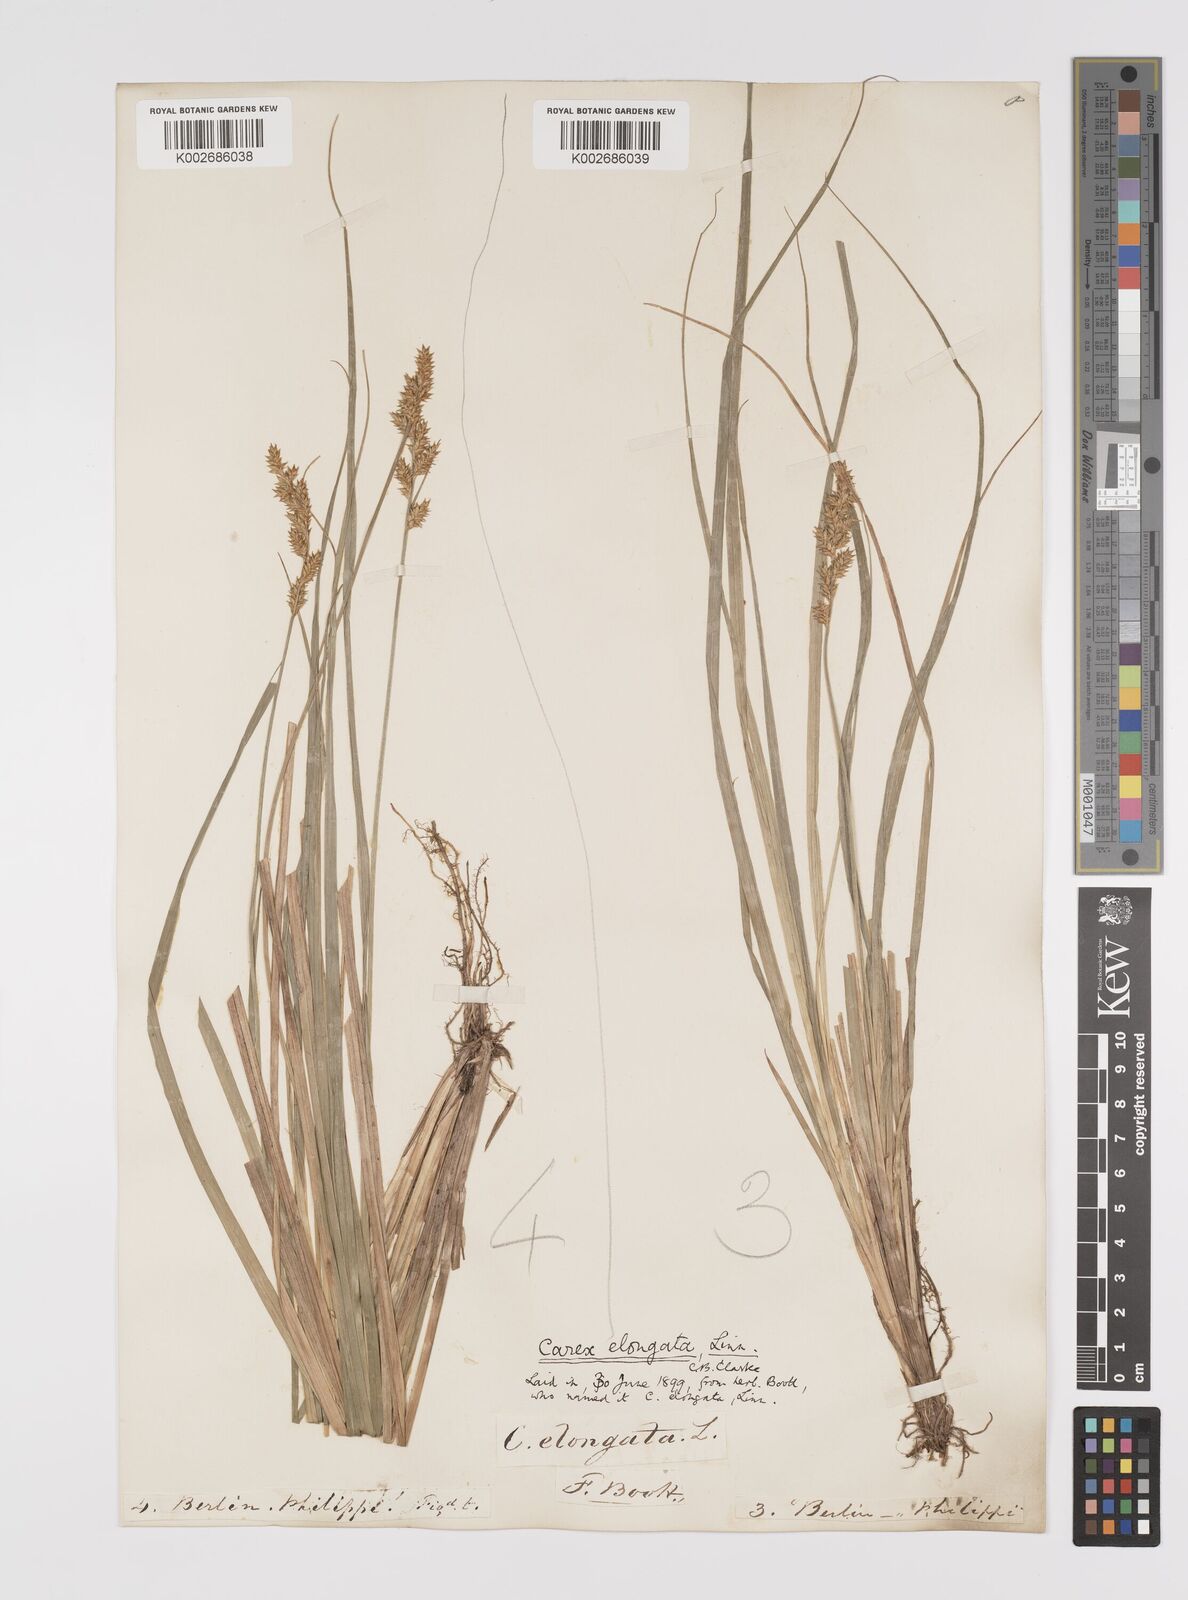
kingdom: Plantae
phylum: Tracheophyta
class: Liliopsida
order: Poales
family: Cyperaceae
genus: Carex
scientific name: Carex elongata
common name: Elongated sedge
